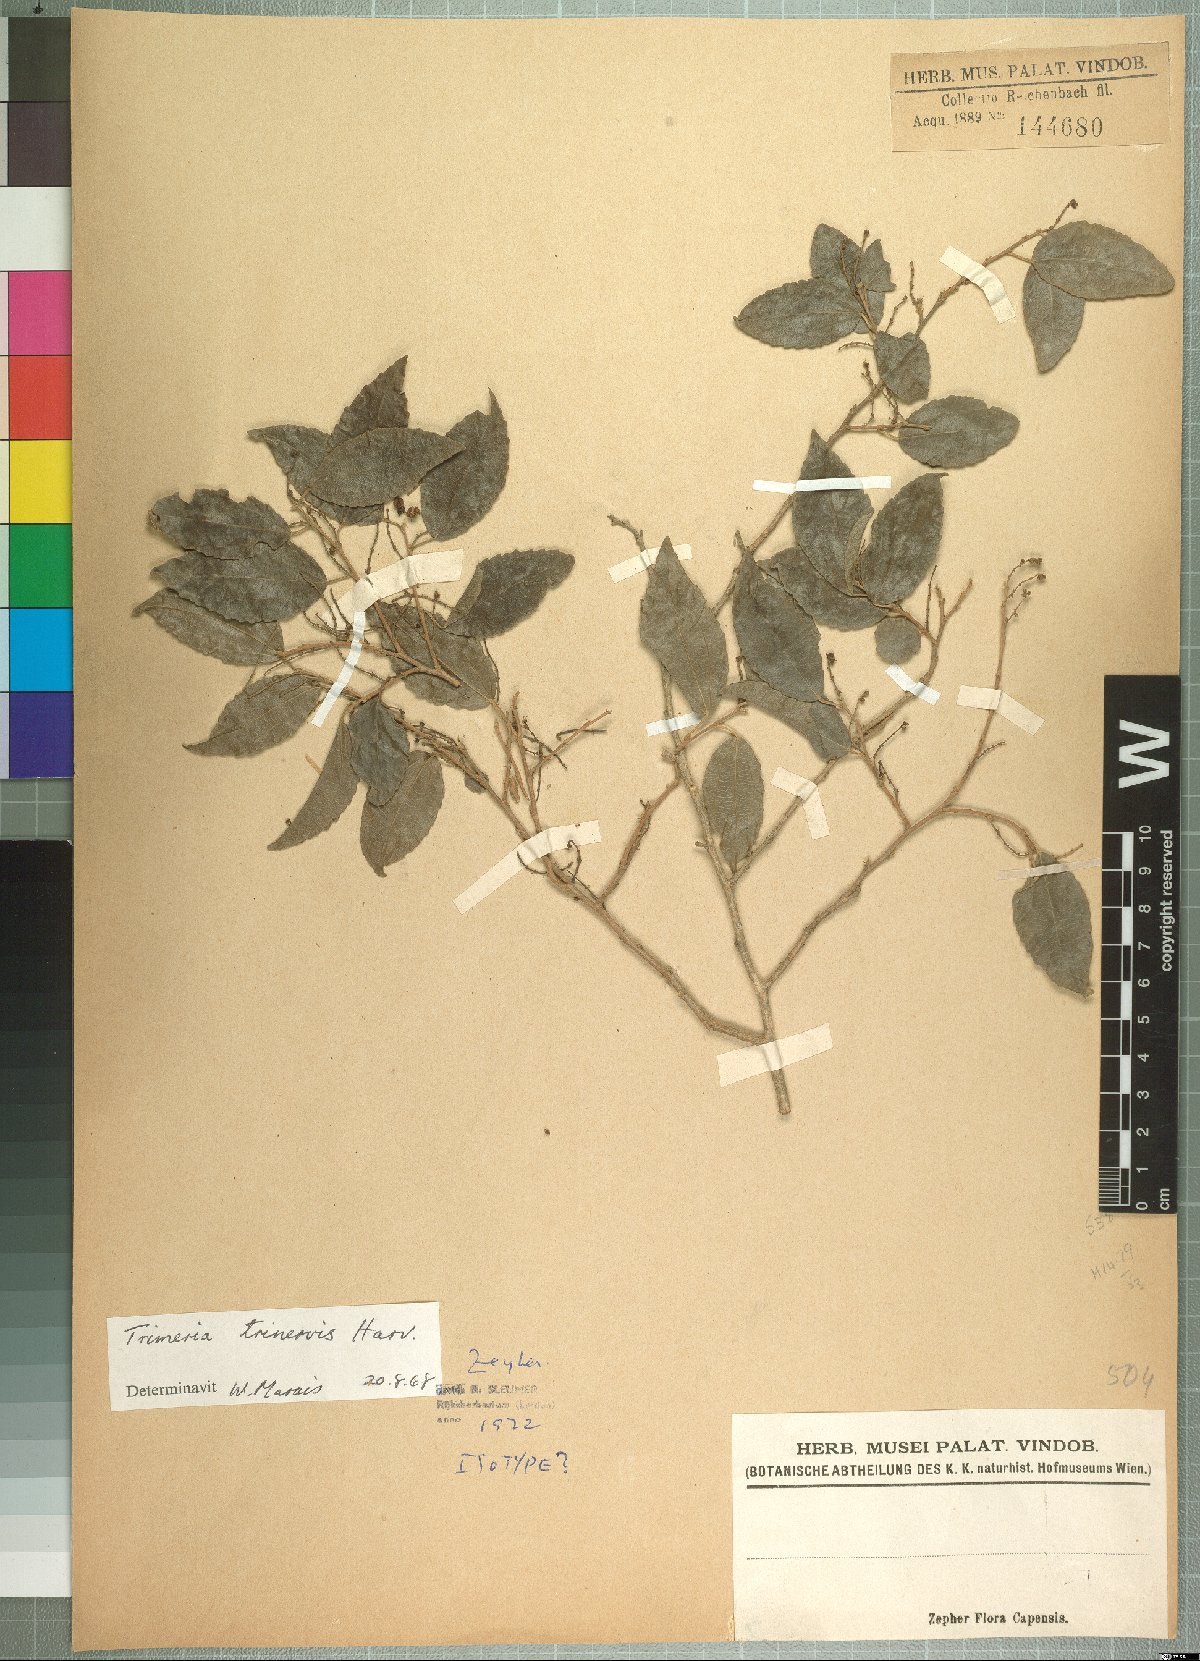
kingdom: Plantae
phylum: Tracheophyta
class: Magnoliopsida
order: Malpighiales
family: Salicaceae
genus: Trimeria
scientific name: Trimeria trinervis
